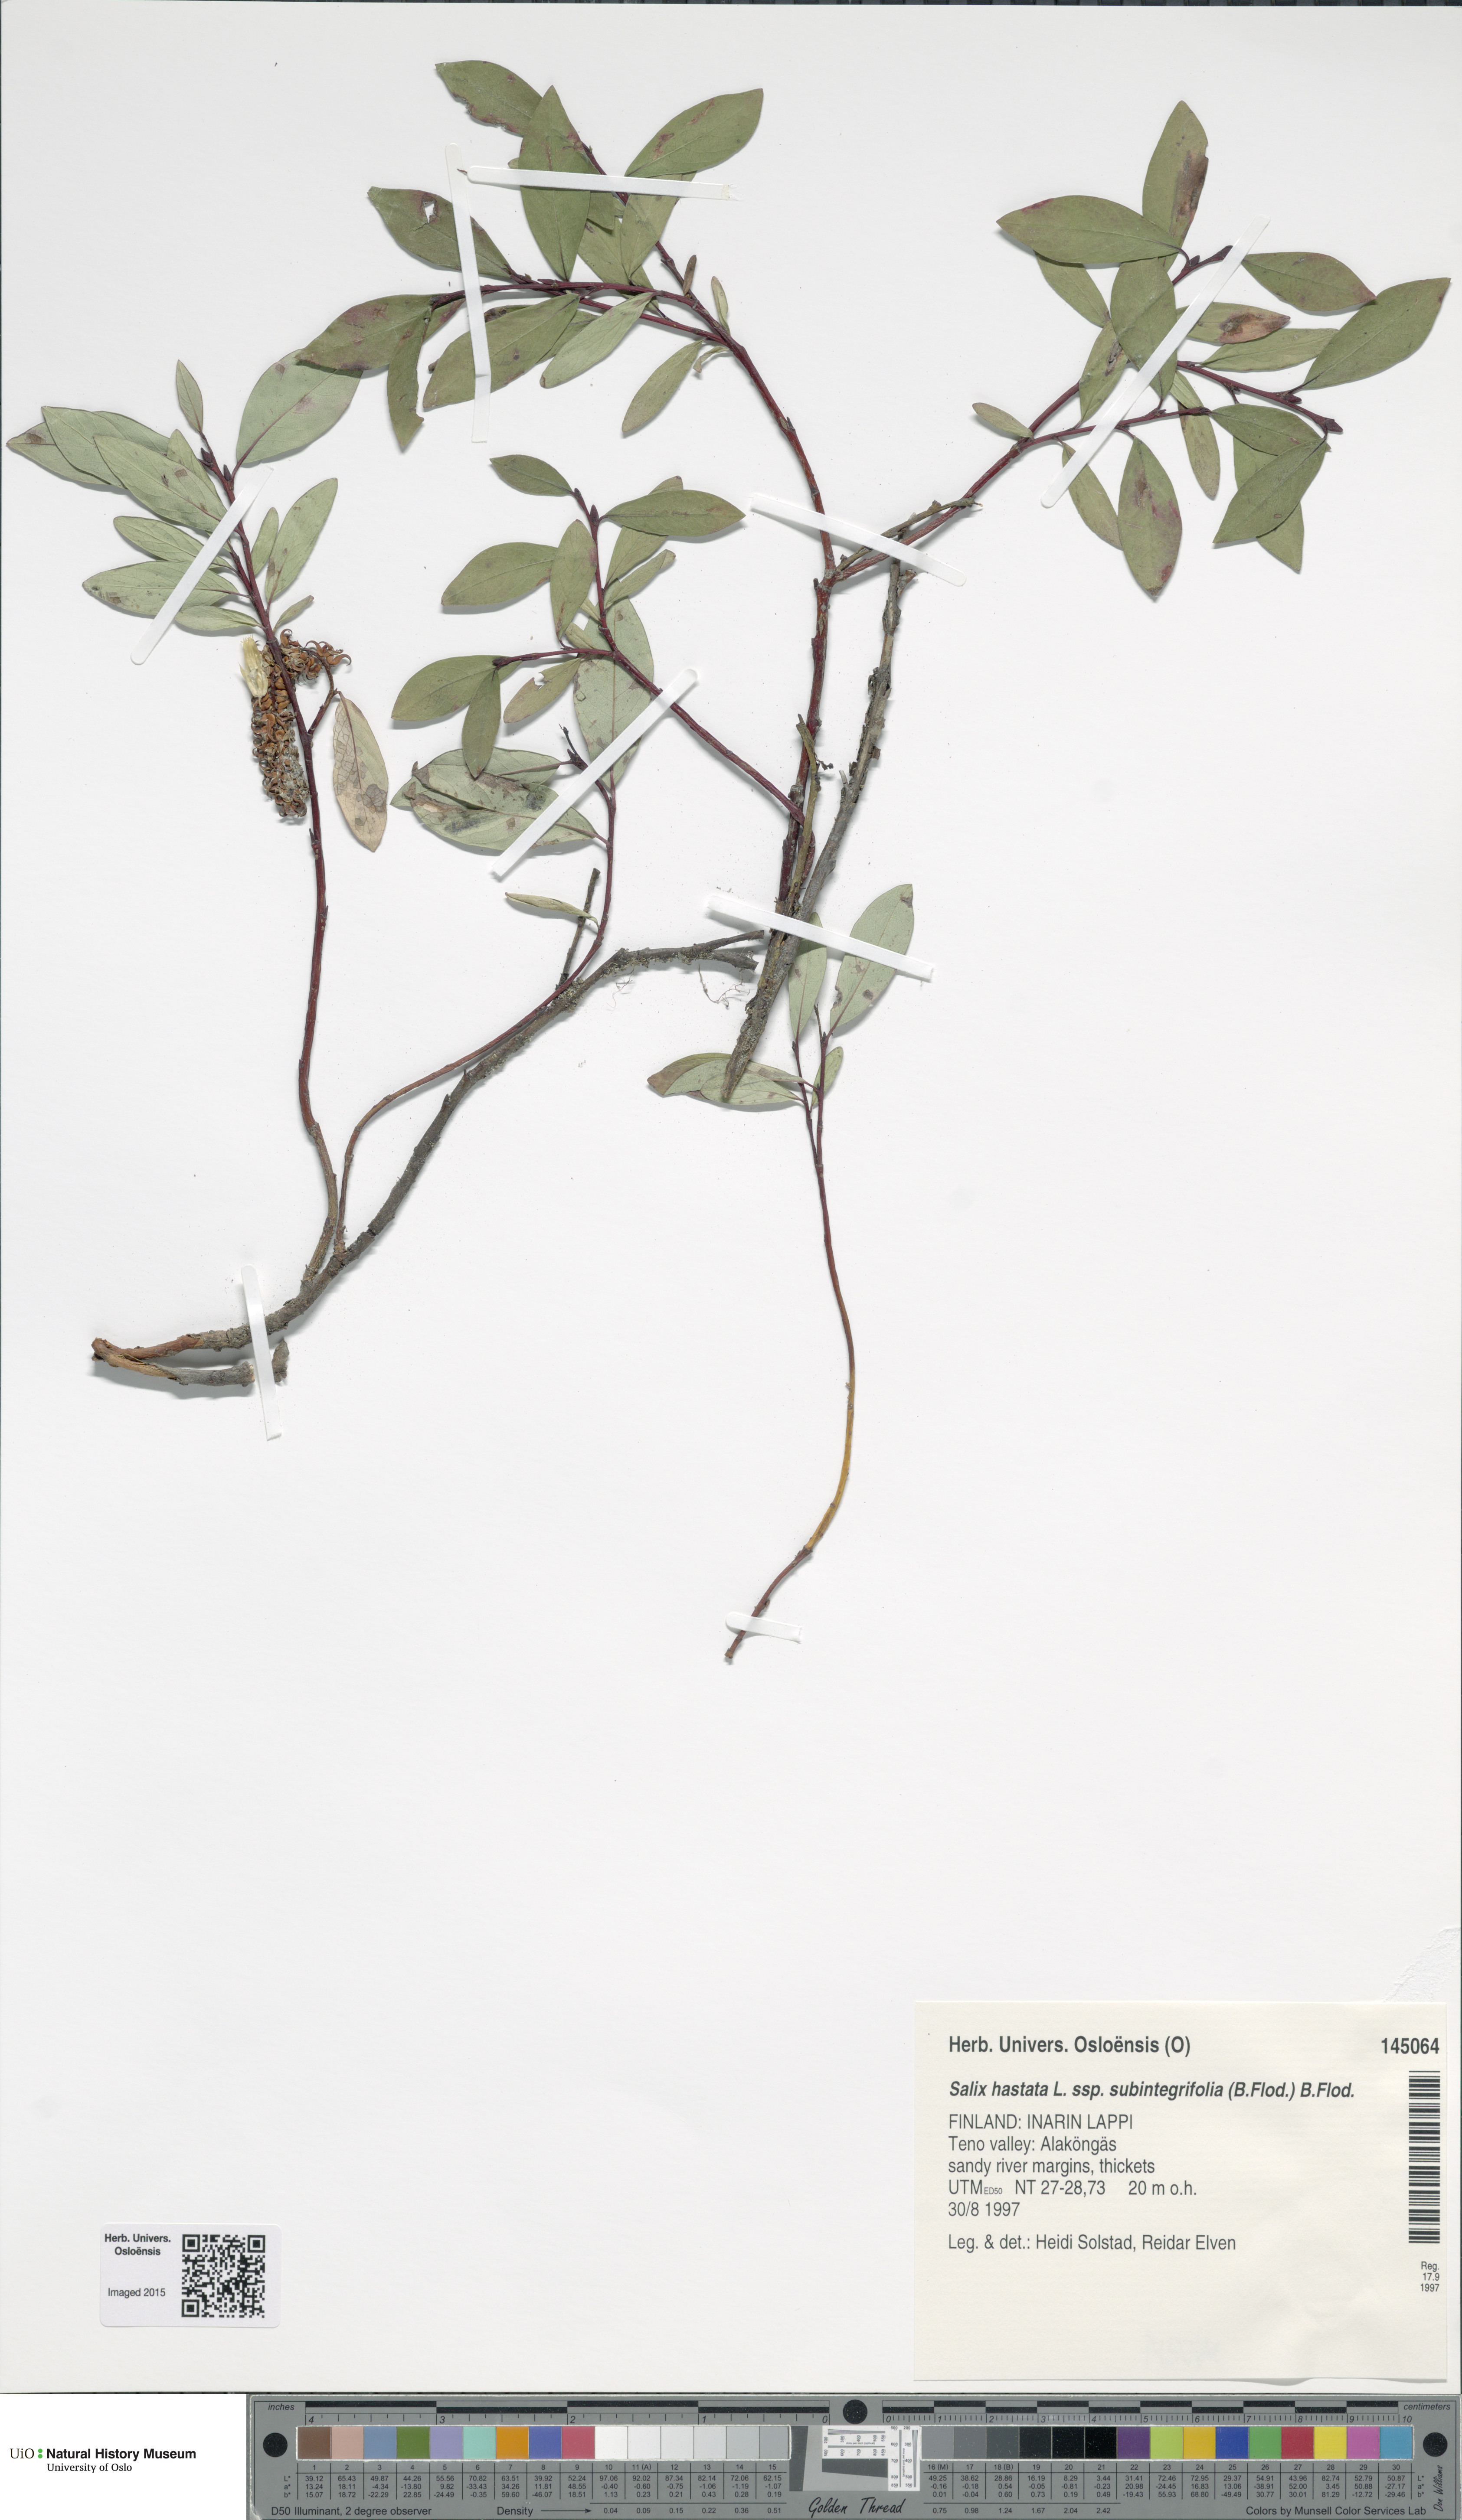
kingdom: Plantae
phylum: Tracheophyta
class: Magnoliopsida
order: Malpighiales
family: Salicaceae
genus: Salix
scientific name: Salix hastata
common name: Halberd willow
